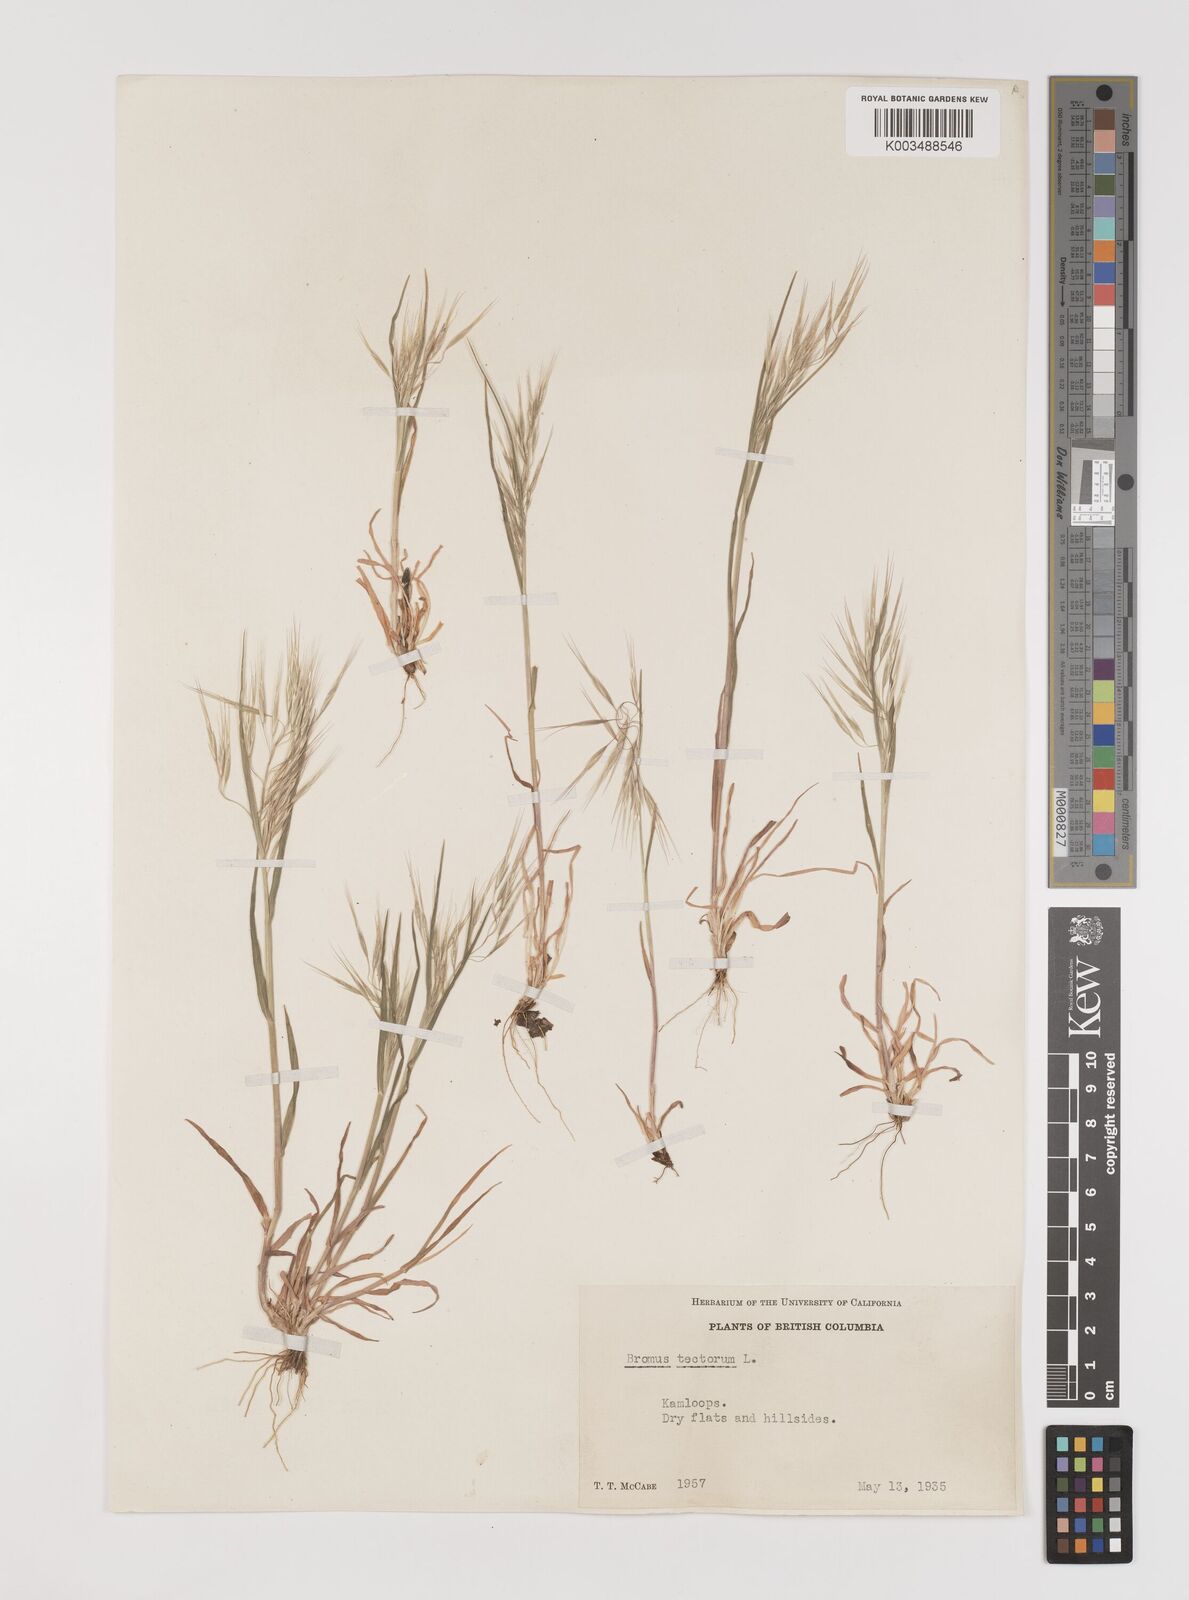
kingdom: Plantae
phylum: Tracheophyta
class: Liliopsida
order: Poales
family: Poaceae
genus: Bromus
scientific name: Bromus tectorum
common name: Cheatgrass
